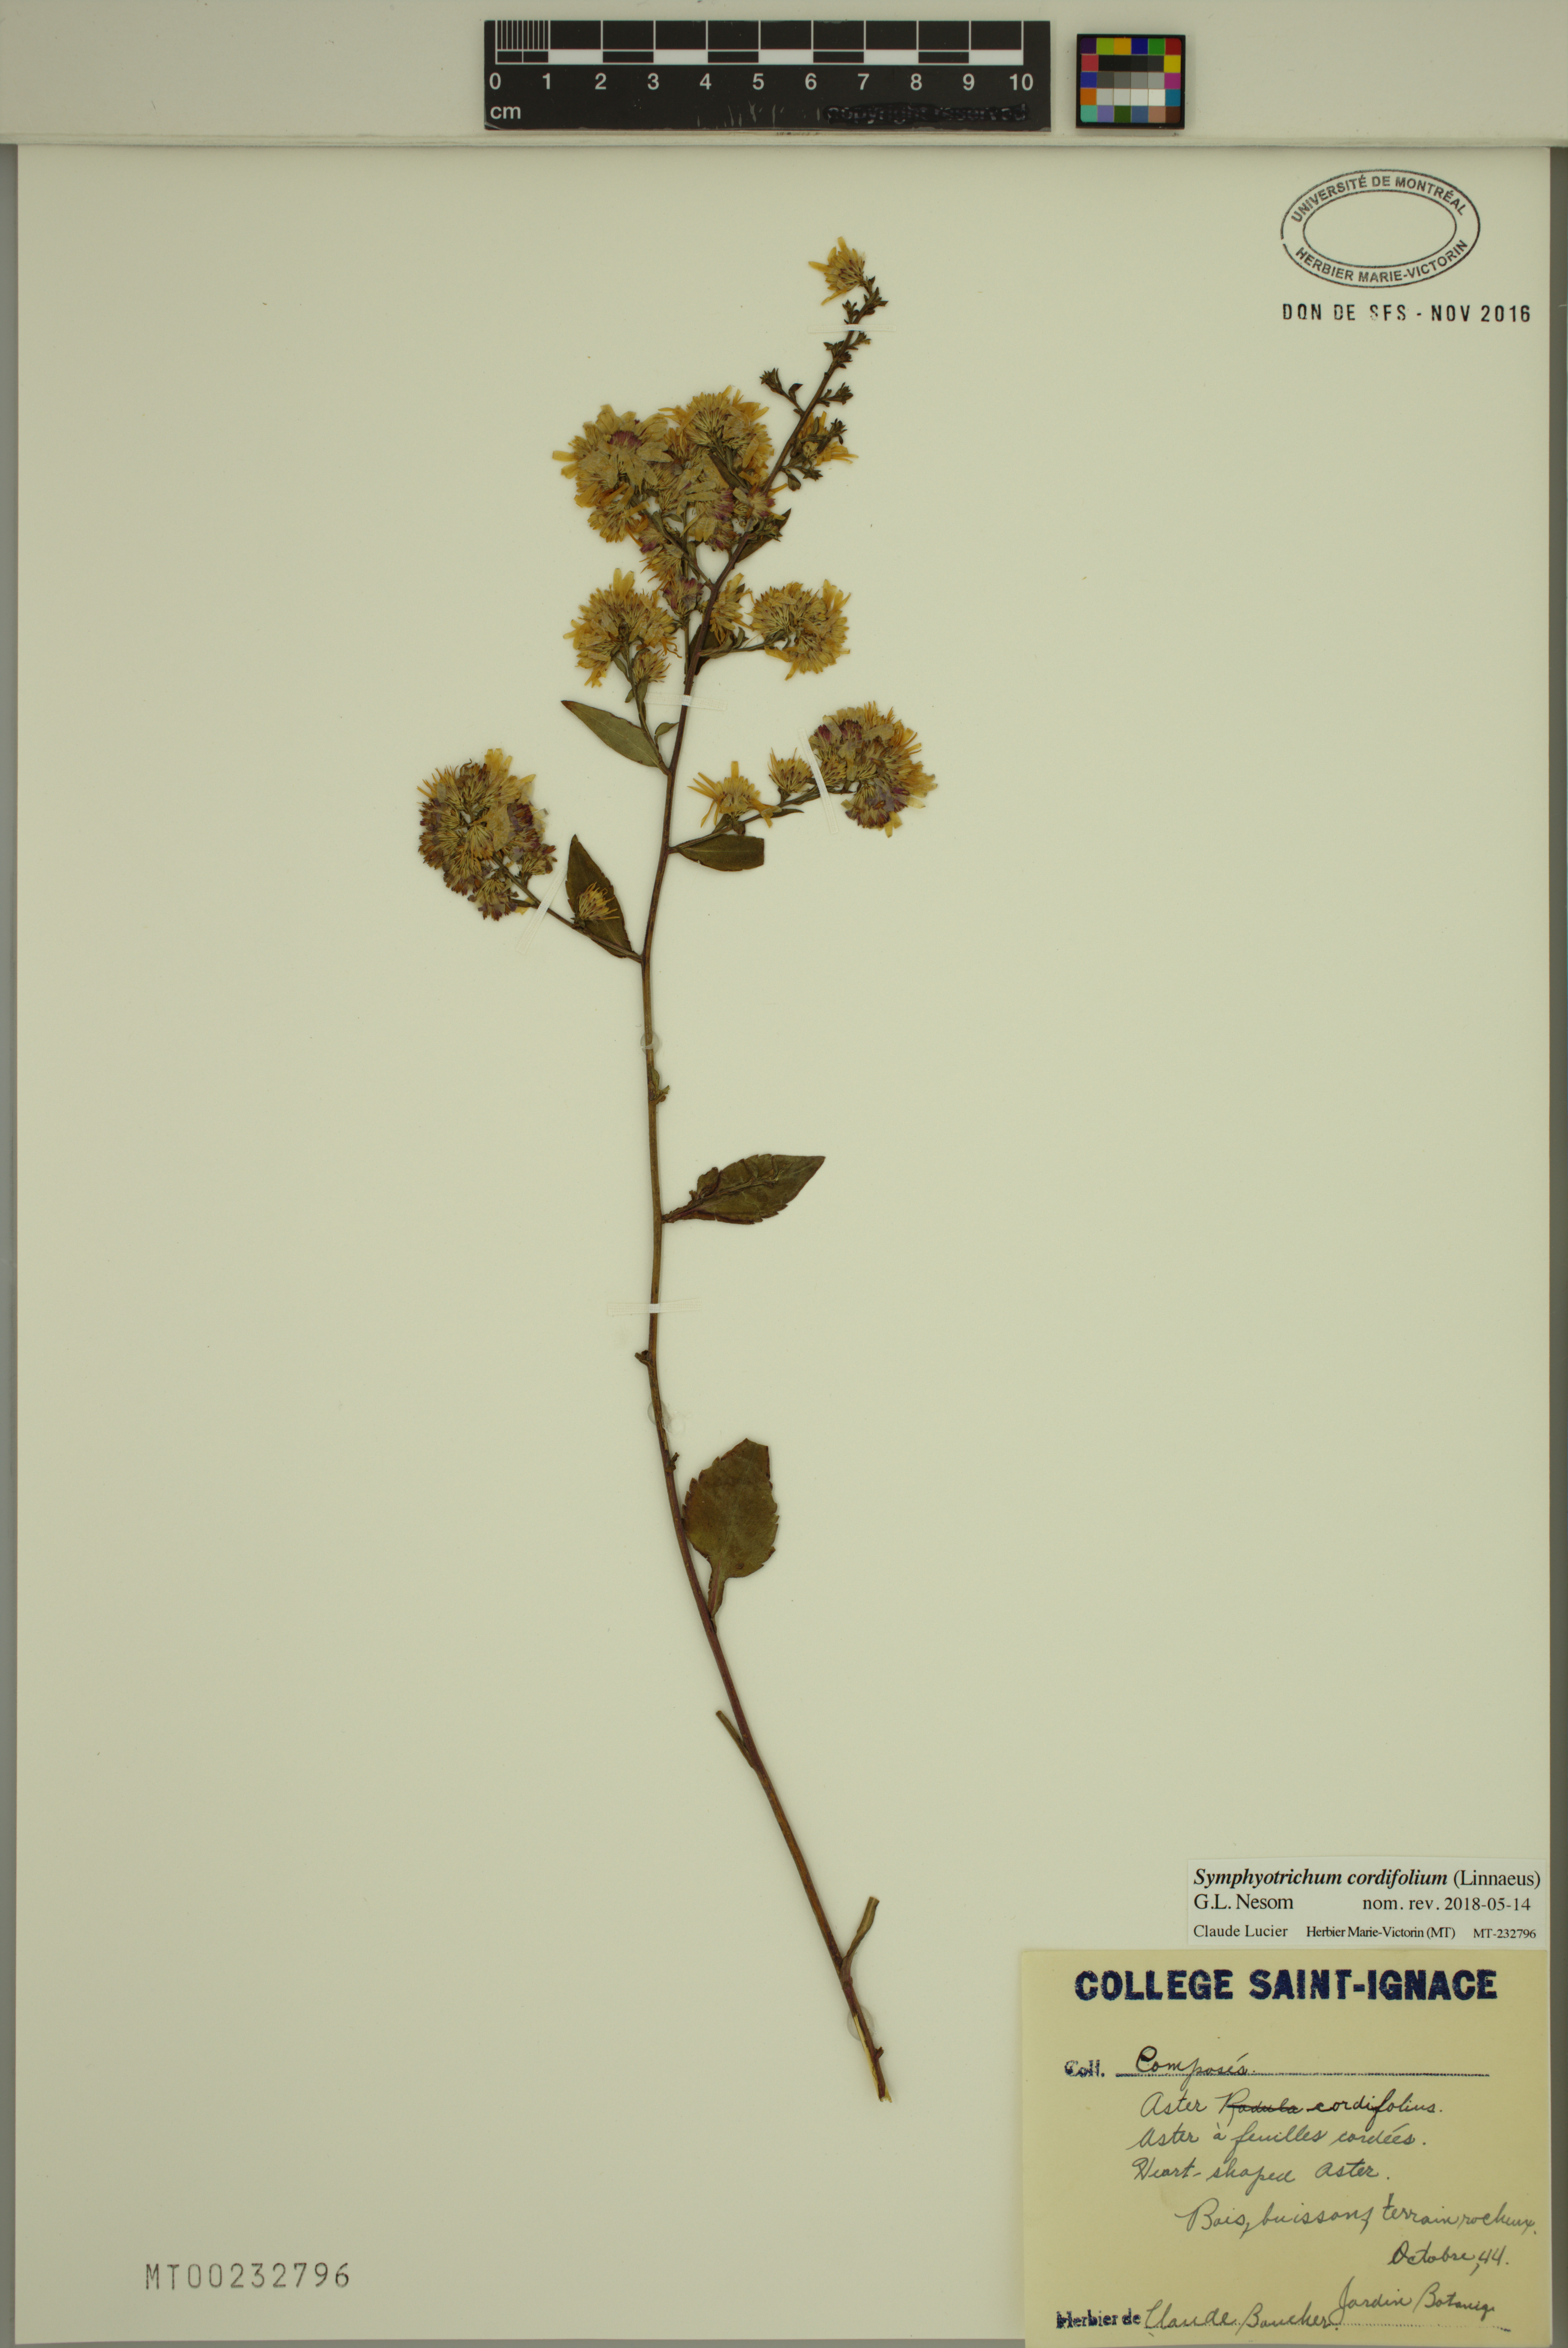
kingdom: Plantae
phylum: Tracheophyta
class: Magnoliopsida
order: Asterales
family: Asteraceae
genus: Symphyotrichum
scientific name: Symphyotrichum cordifolium
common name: Beeweed
